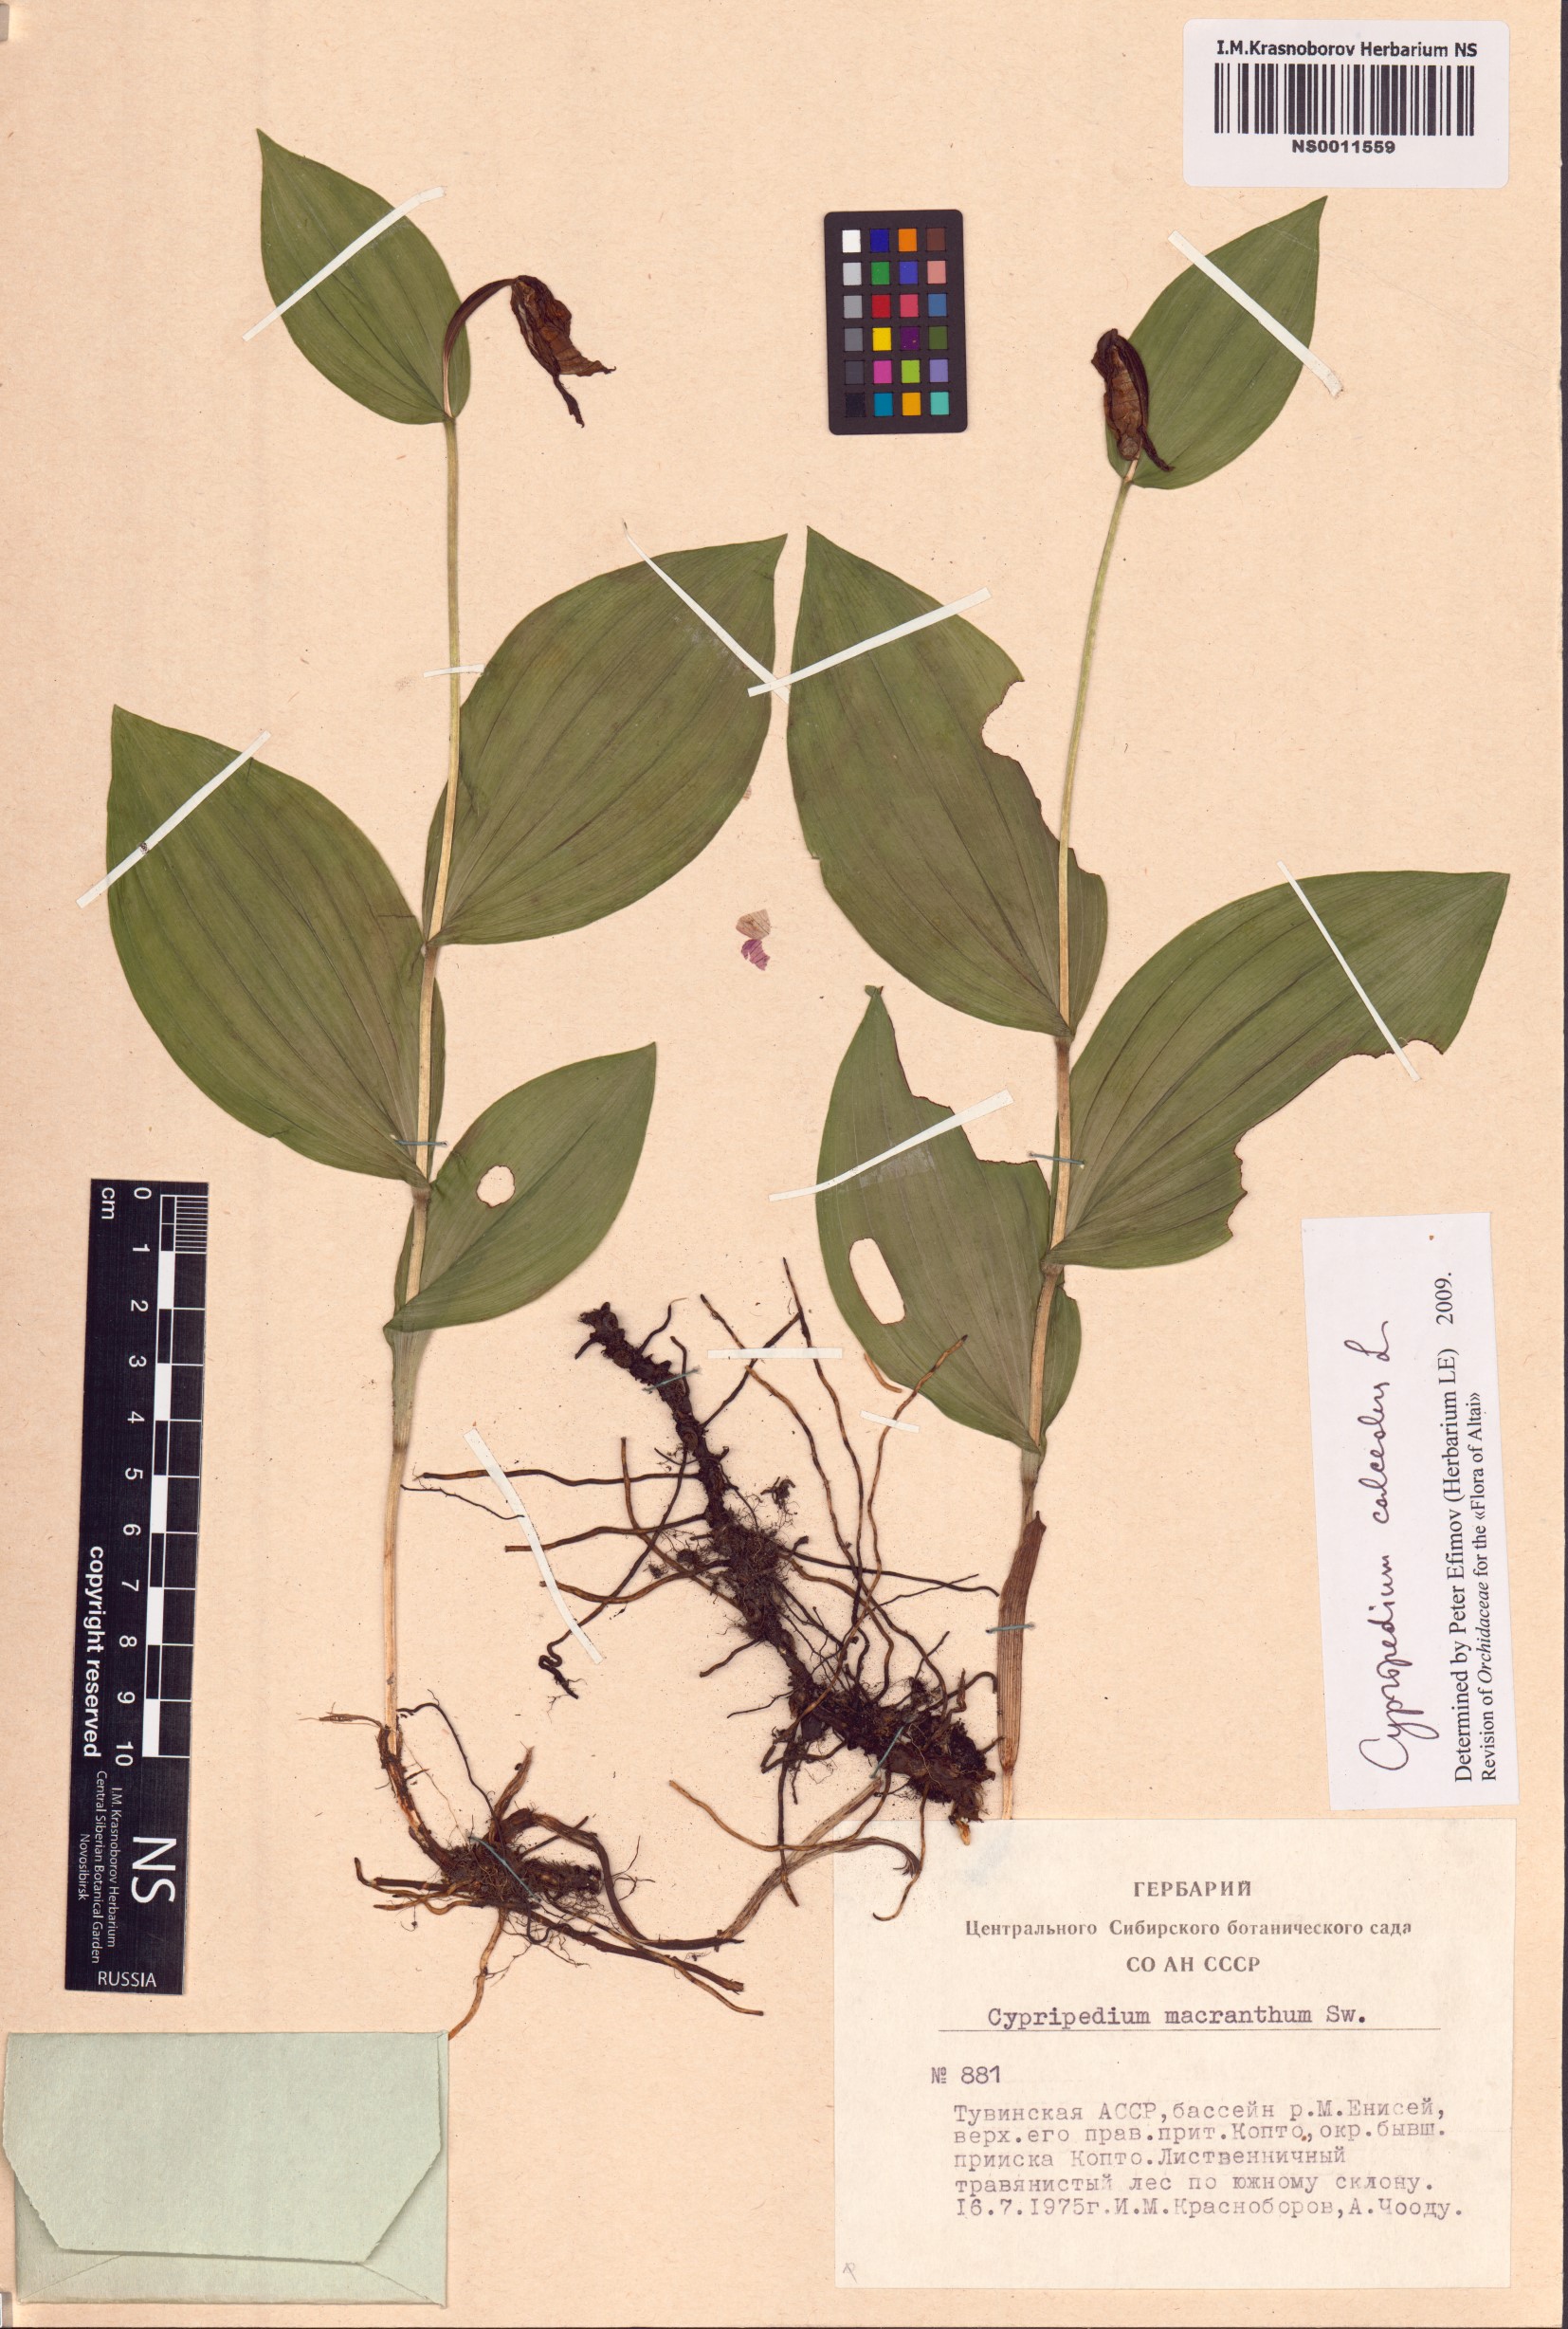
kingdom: Plantae
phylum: Tracheophyta
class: Liliopsida
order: Asparagales
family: Orchidaceae
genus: Cypripedium
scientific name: Cypripedium calceolus
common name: Lady's-slipper
